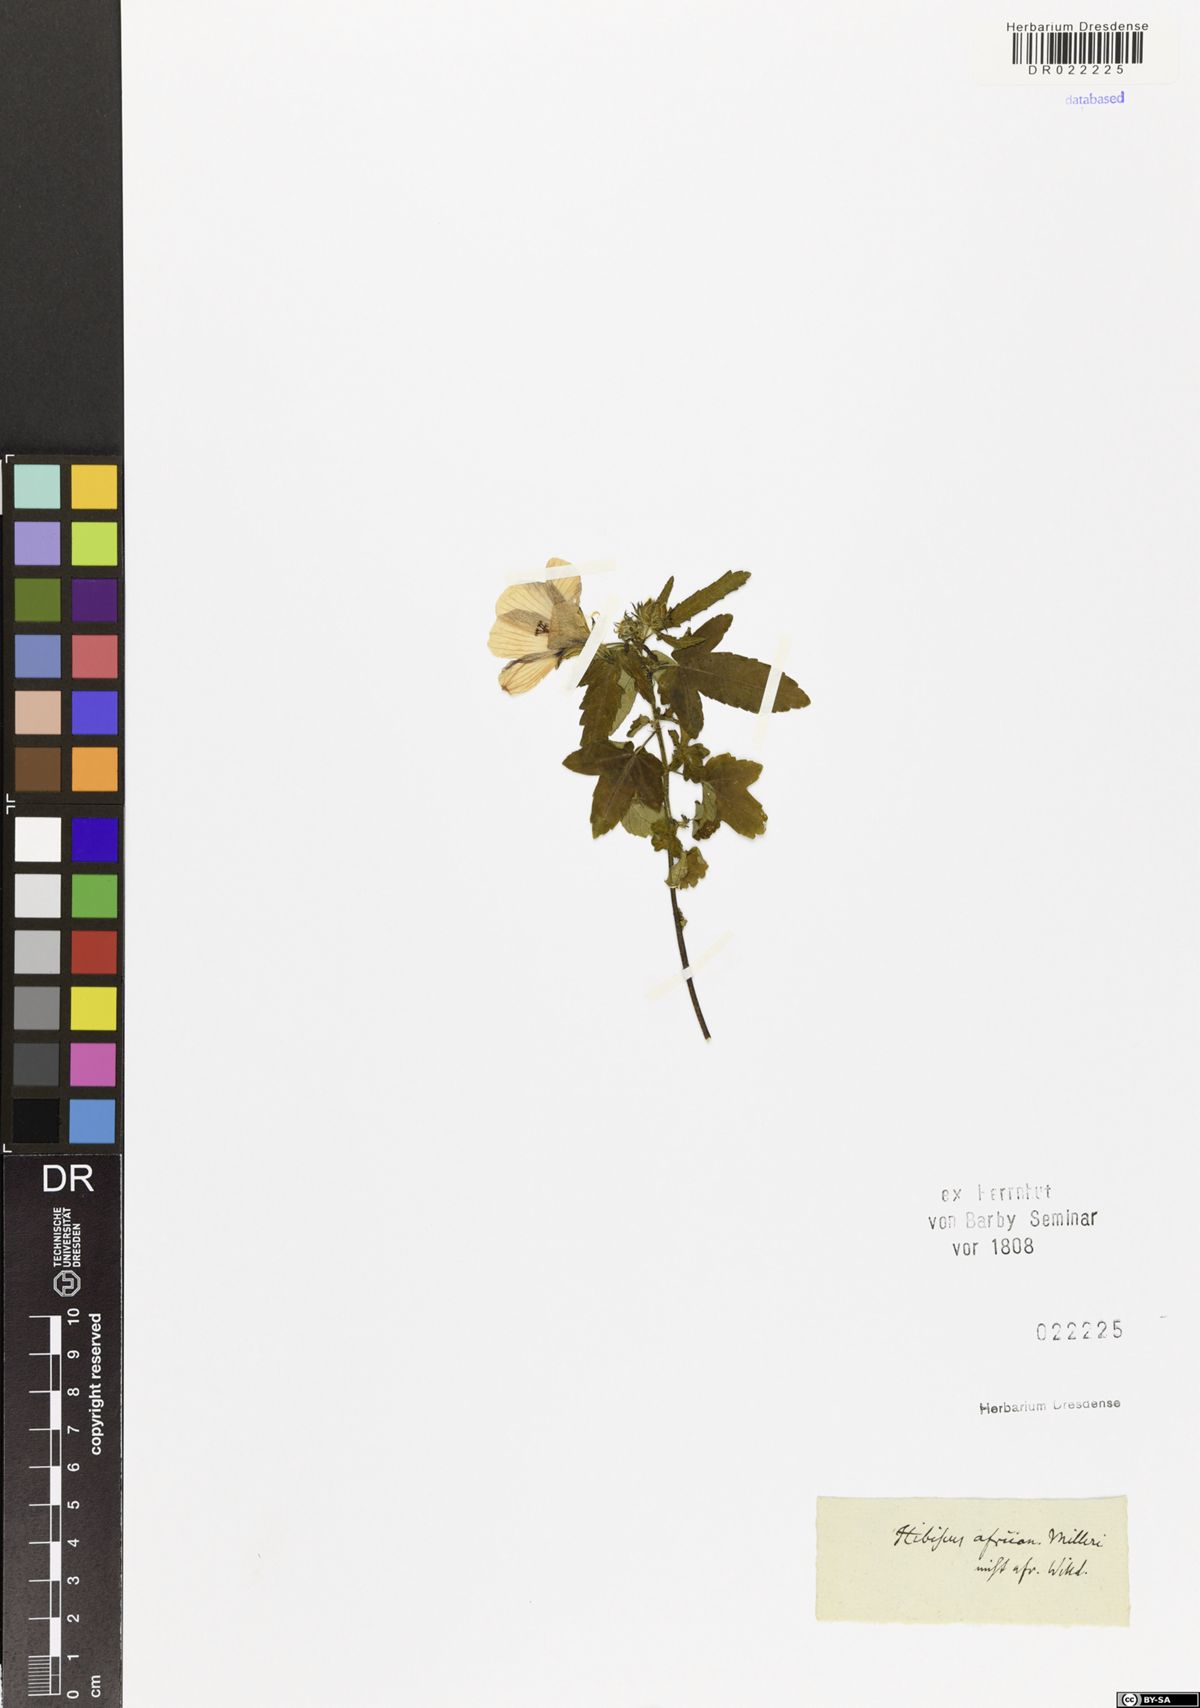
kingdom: Plantae
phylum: Tracheophyta
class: Magnoliopsida
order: Malvales
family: Malvaceae
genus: Hibiscus
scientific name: Hibiscus trionum
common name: Bladder ketmia
